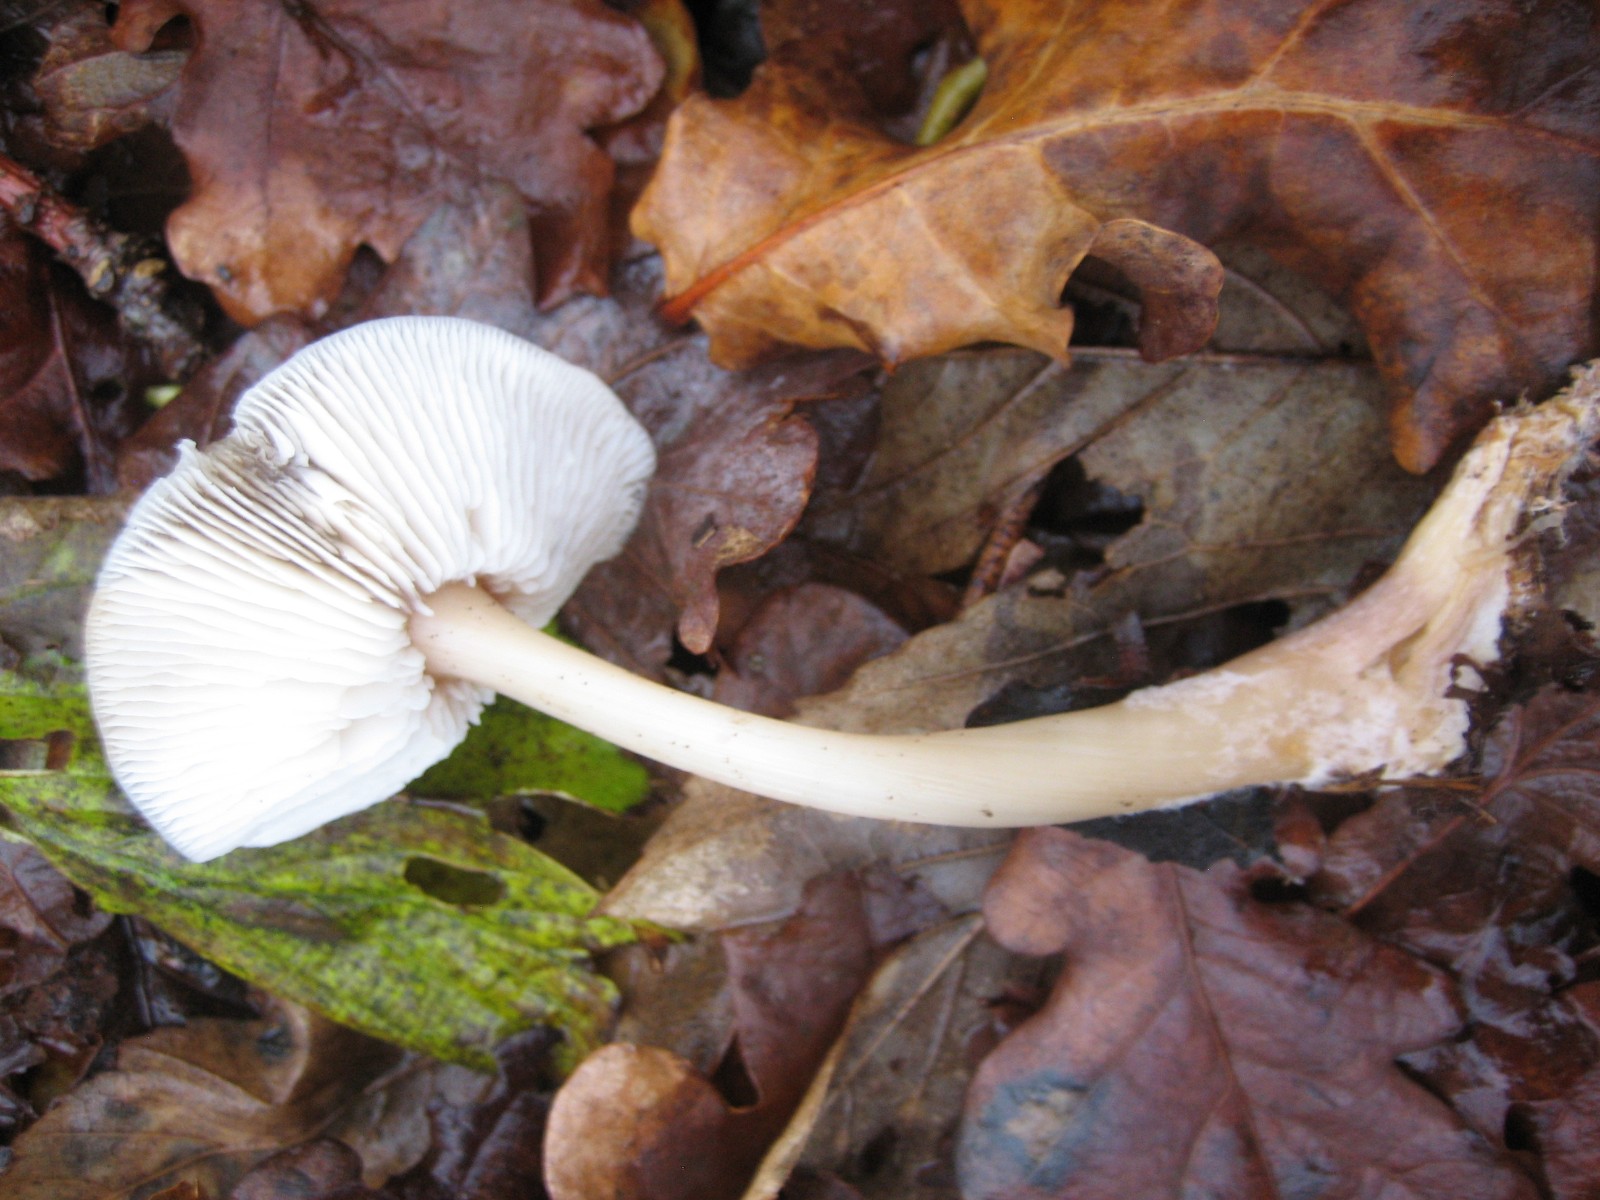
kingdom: Fungi
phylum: Basidiomycota
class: Agaricomycetes
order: Agaricales
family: Omphalotaceae
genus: Gymnopus
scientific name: Gymnopus dryophilus
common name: løv-fladhat
